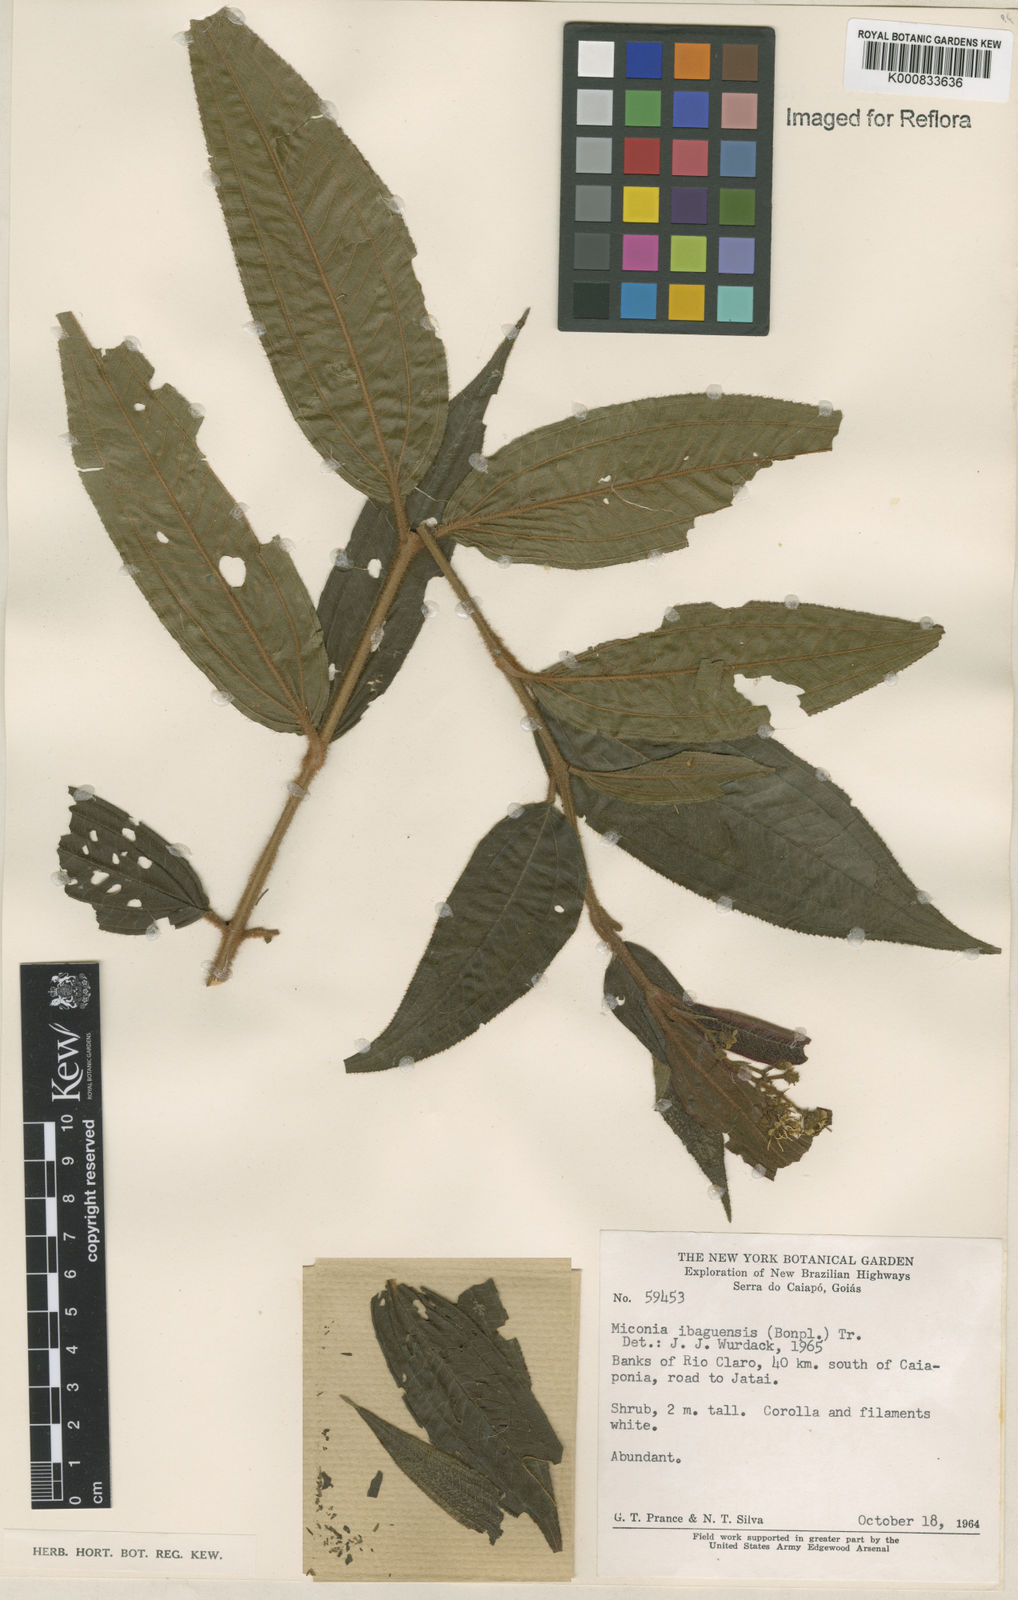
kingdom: Plantae
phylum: Tracheophyta
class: Magnoliopsida
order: Myrtales
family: Melastomataceae
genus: Miconia
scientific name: Miconia ibaguensis
